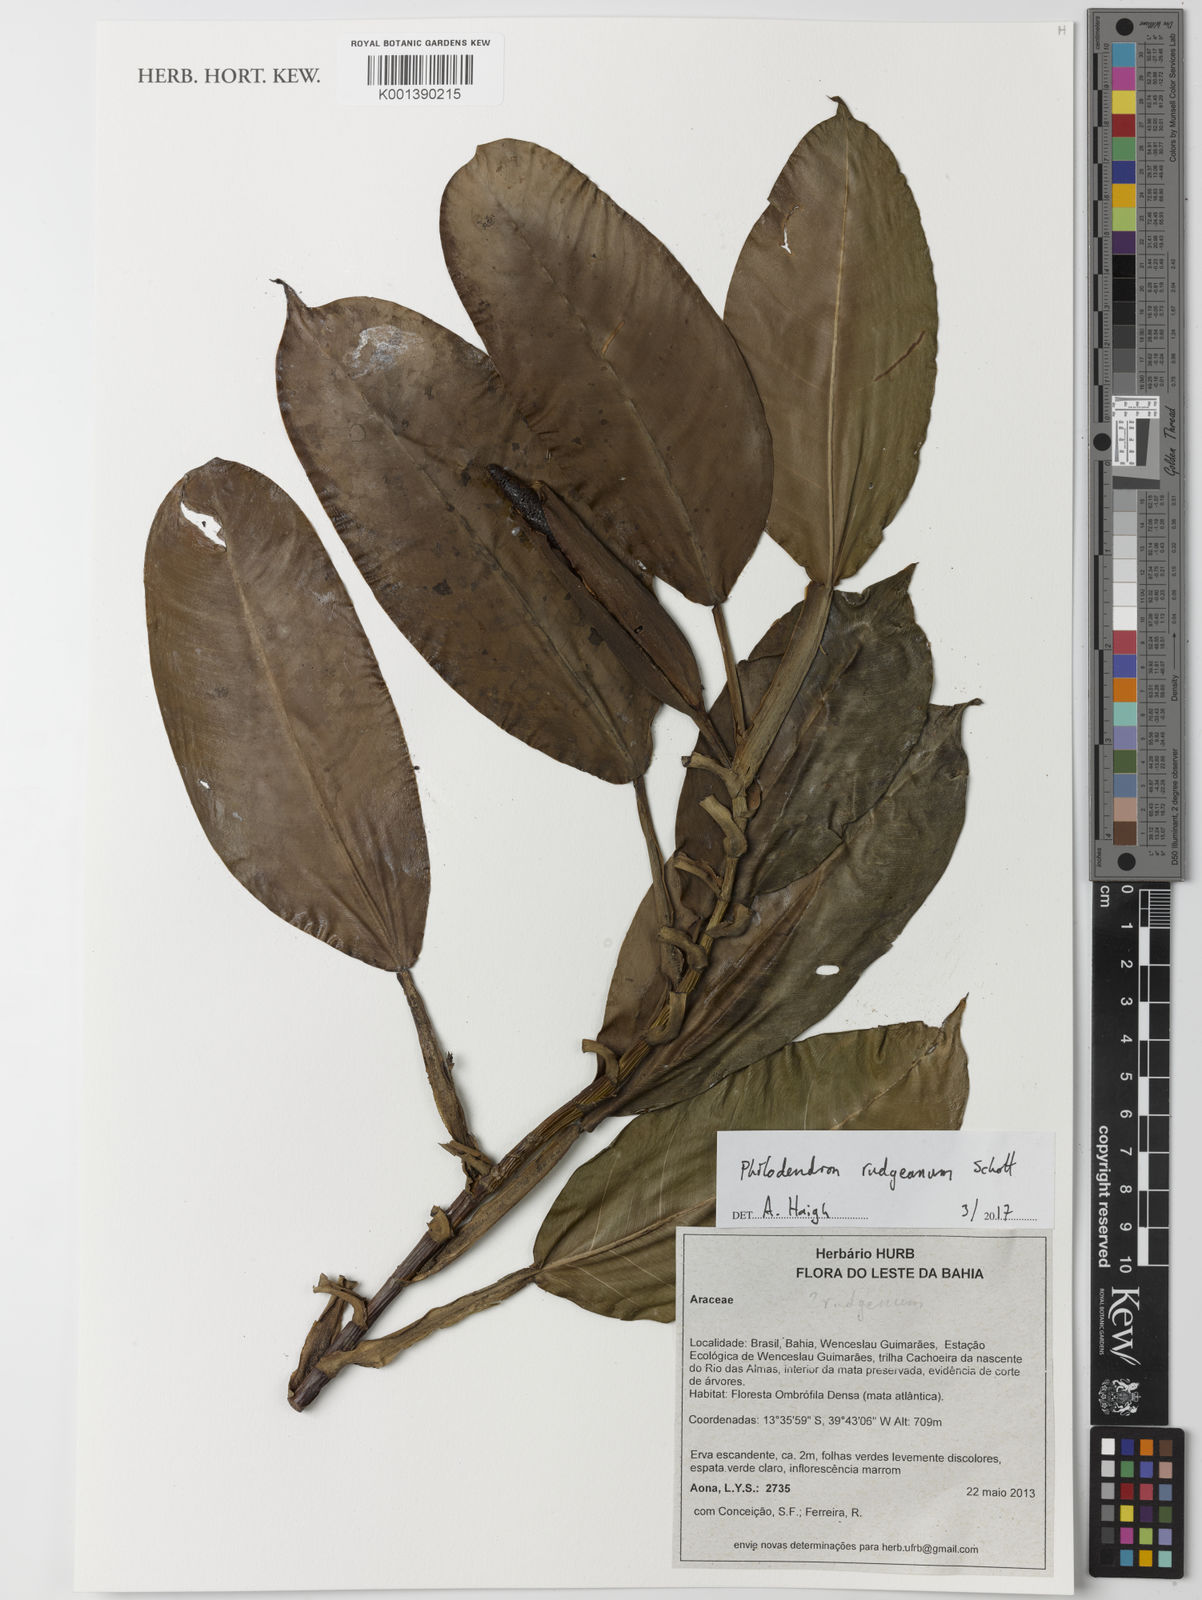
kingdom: Plantae
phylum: Tracheophyta
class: Liliopsida
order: Alismatales
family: Araceae
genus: Philodendron
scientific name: Philodendron rudgeanum
